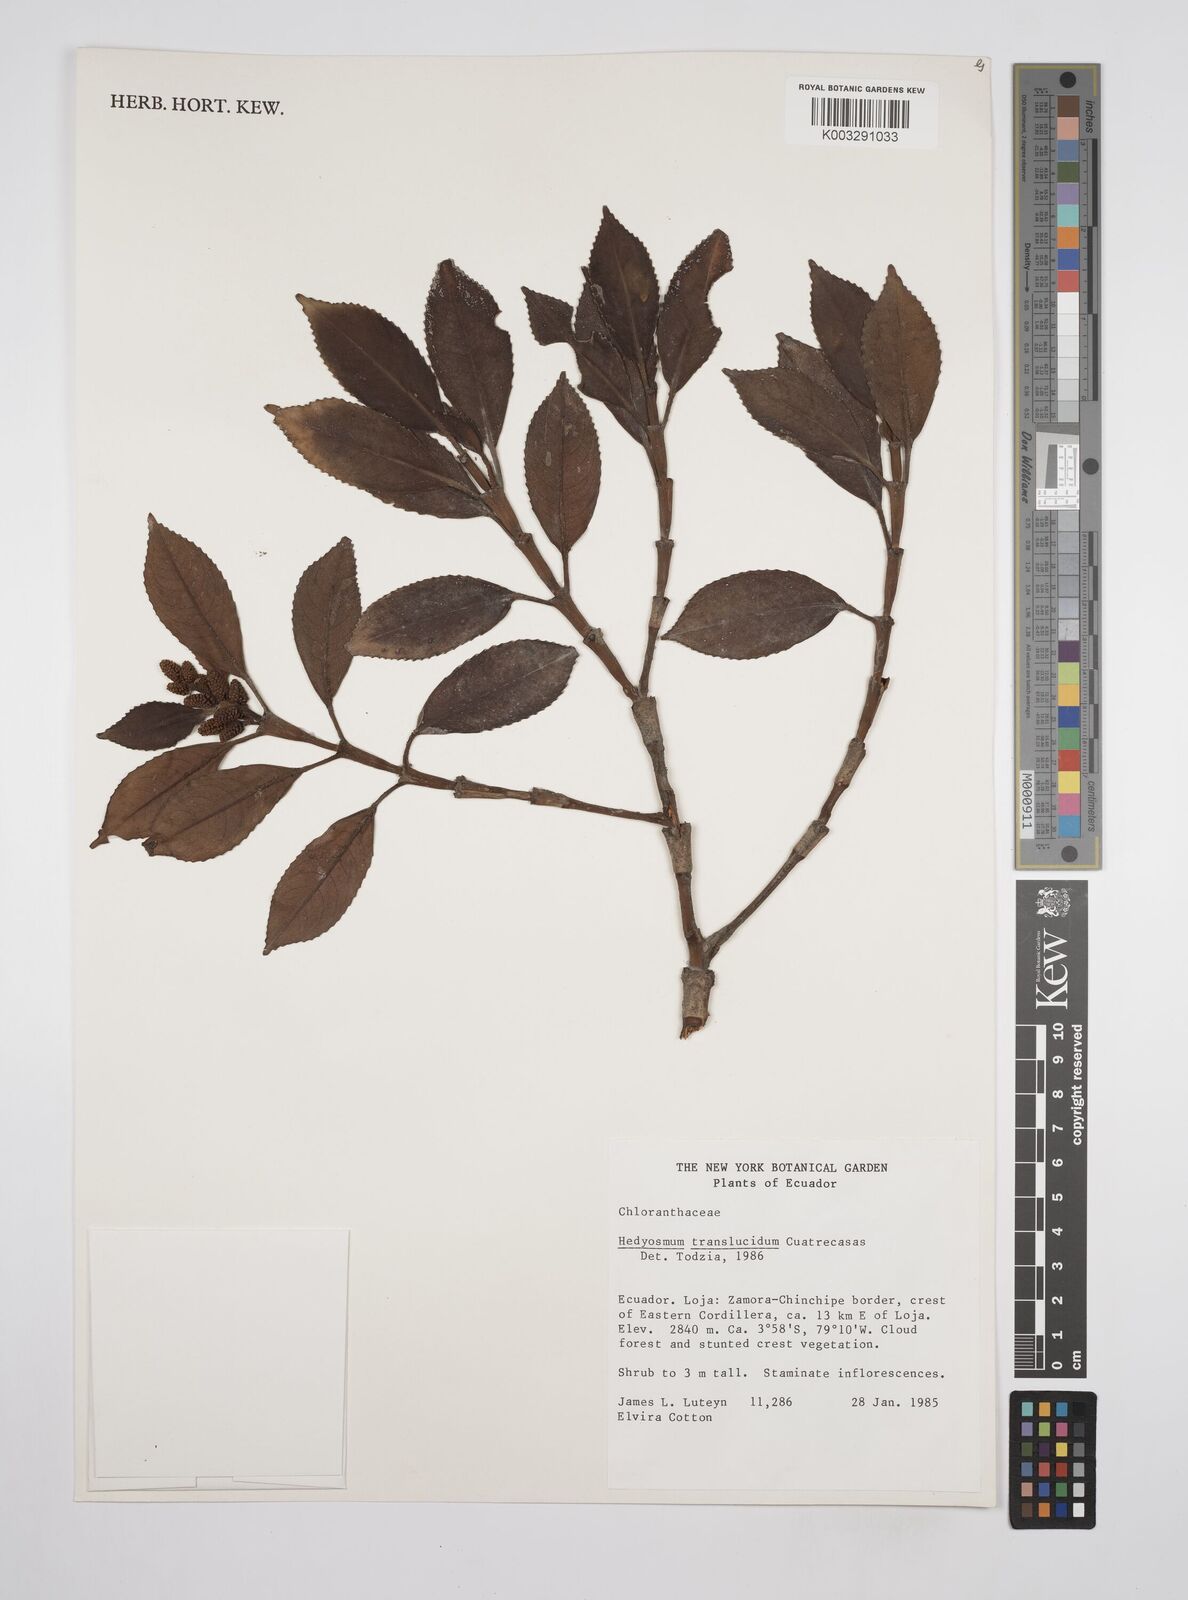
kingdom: Plantae
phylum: Tracheophyta
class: Magnoliopsida
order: Chloranthales
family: Chloranthaceae
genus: Hedyosmum
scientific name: Hedyosmum translucidum
